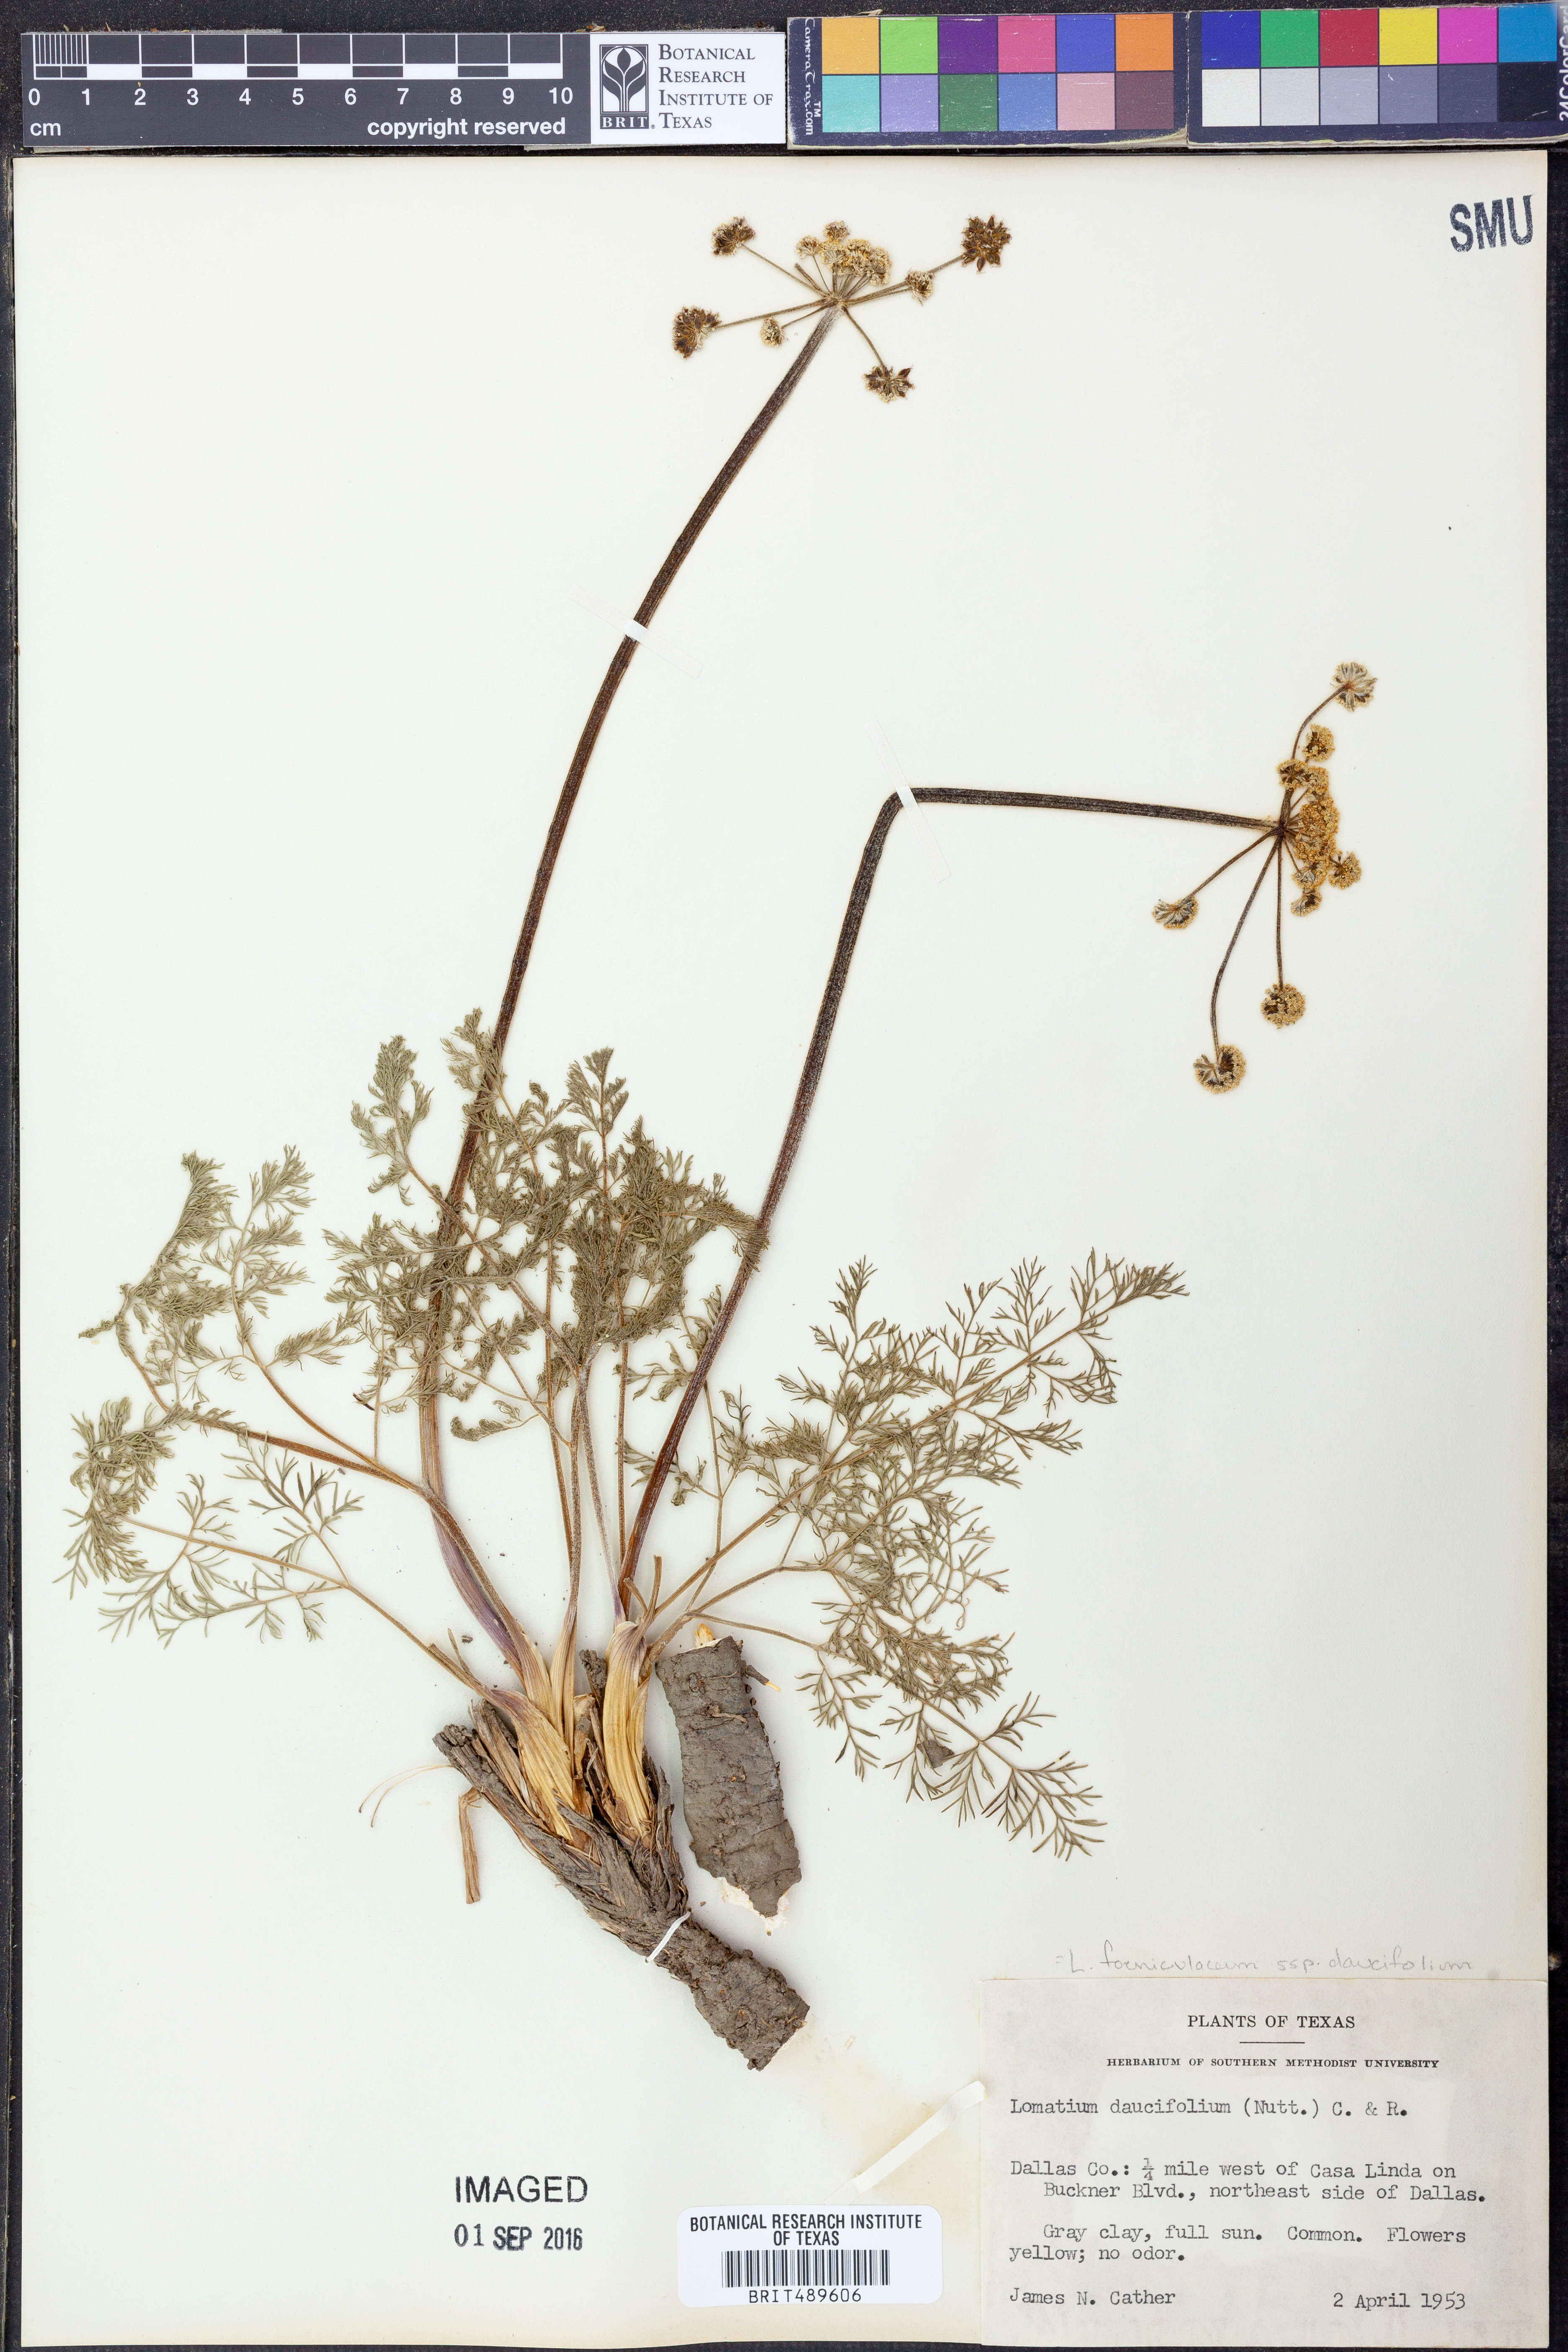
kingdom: Plantae
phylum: Tracheophyta
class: Magnoliopsida
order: Apiales
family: Apiaceae
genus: Lomatium
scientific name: Lomatium foeniculaceum
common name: Desert-parsley
